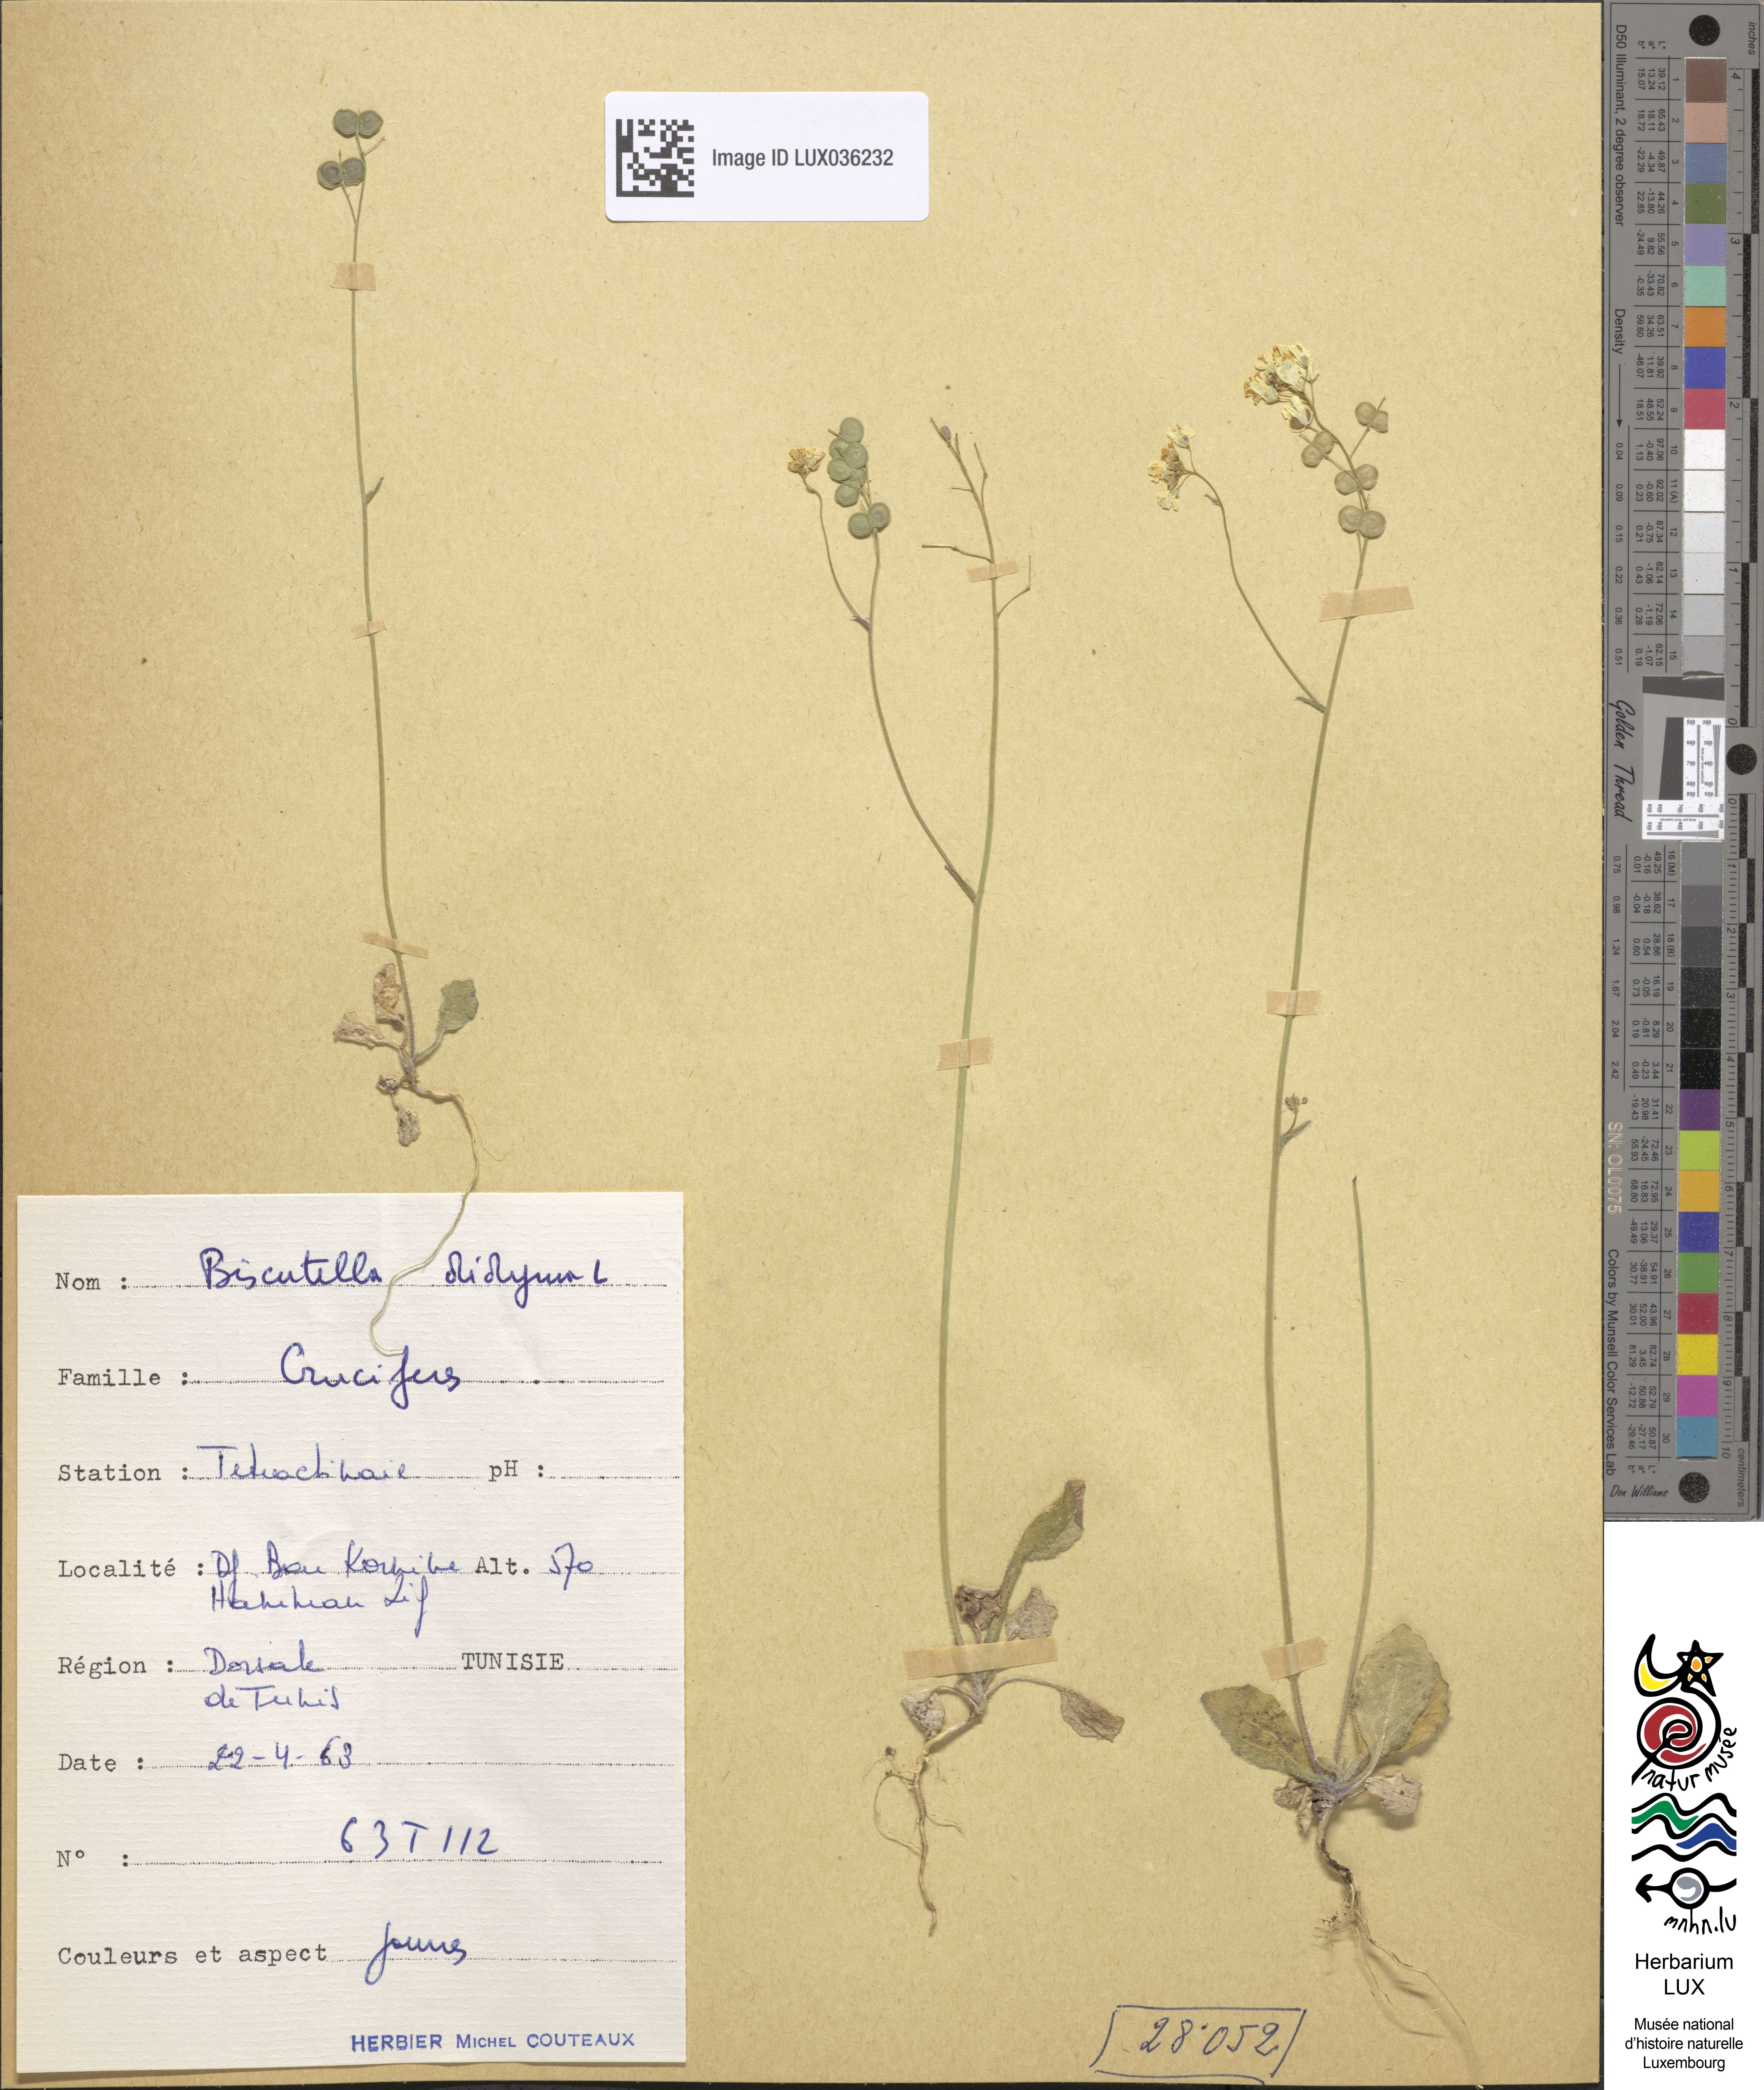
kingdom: Plantae
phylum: Tracheophyta
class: Magnoliopsida
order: Brassicales
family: Brassicaceae
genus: Biscutella
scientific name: Biscutella didyma
